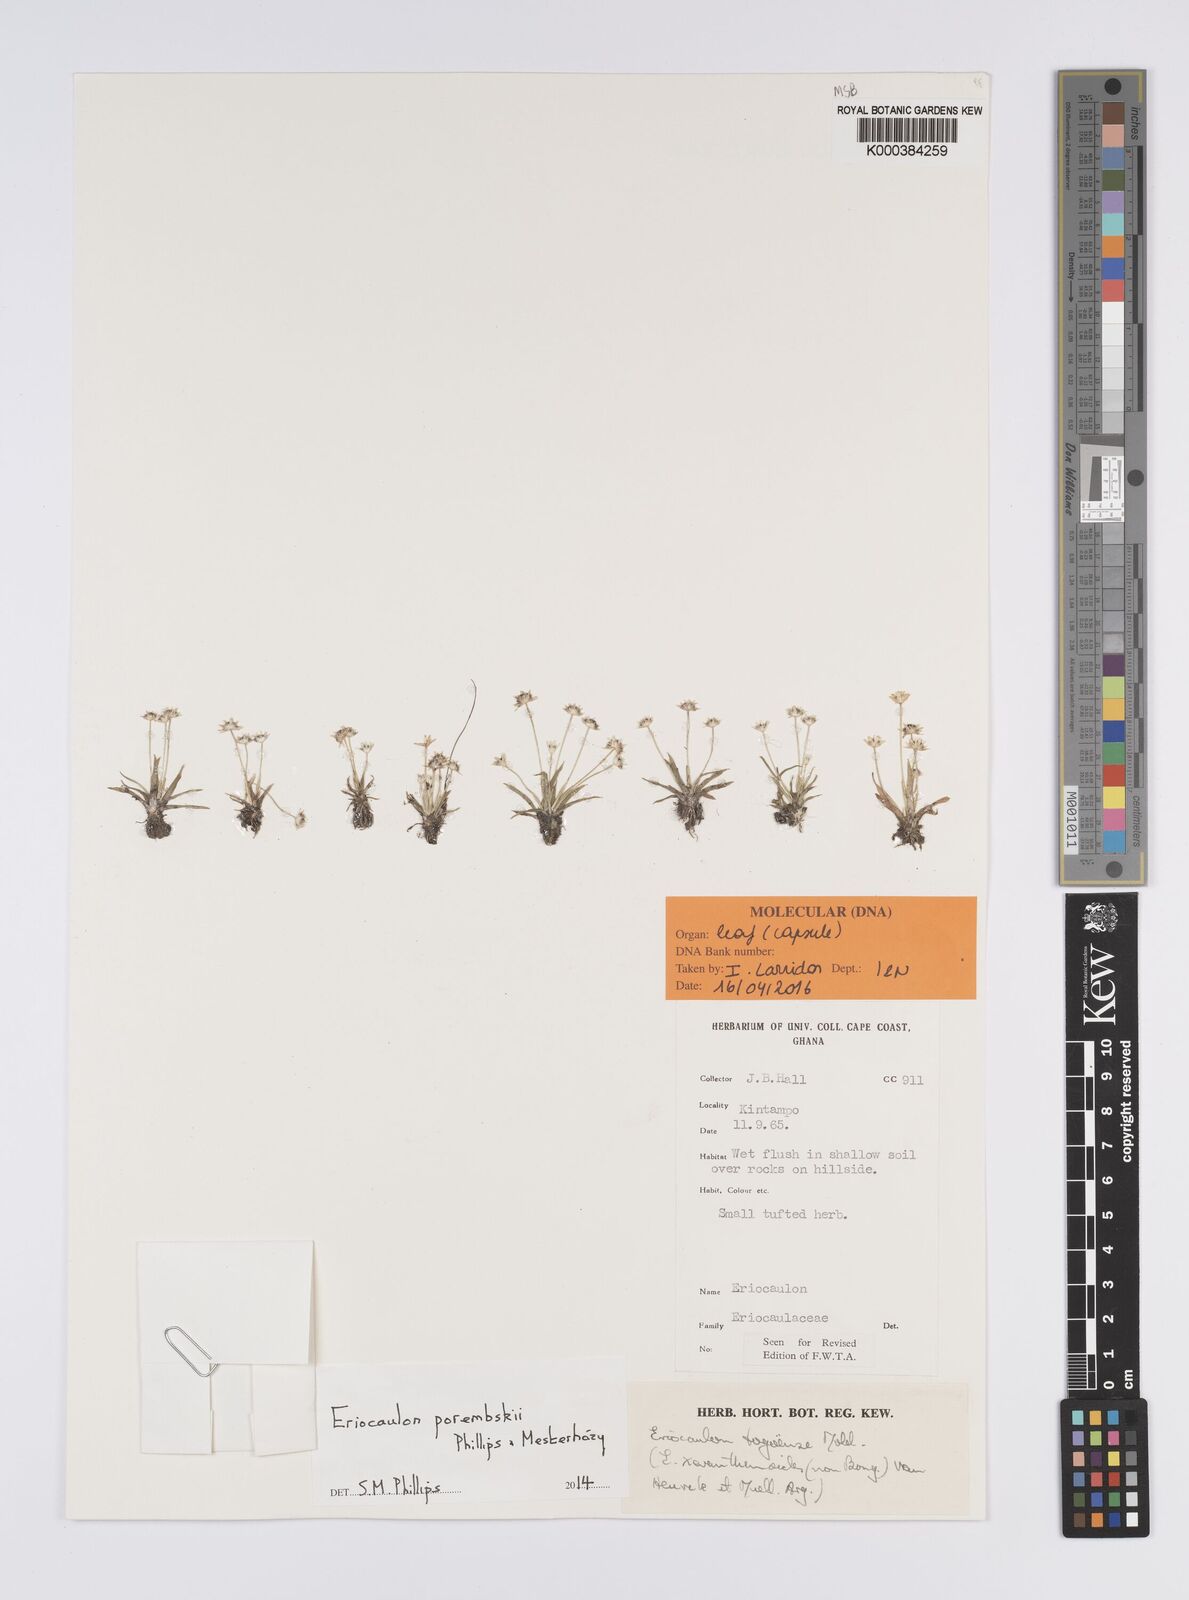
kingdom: Plantae
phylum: Tracheophyta
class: Liliopsida
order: Poales
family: Eriocaulaceae
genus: Eriocaulon
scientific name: Eriocaulon togoense
